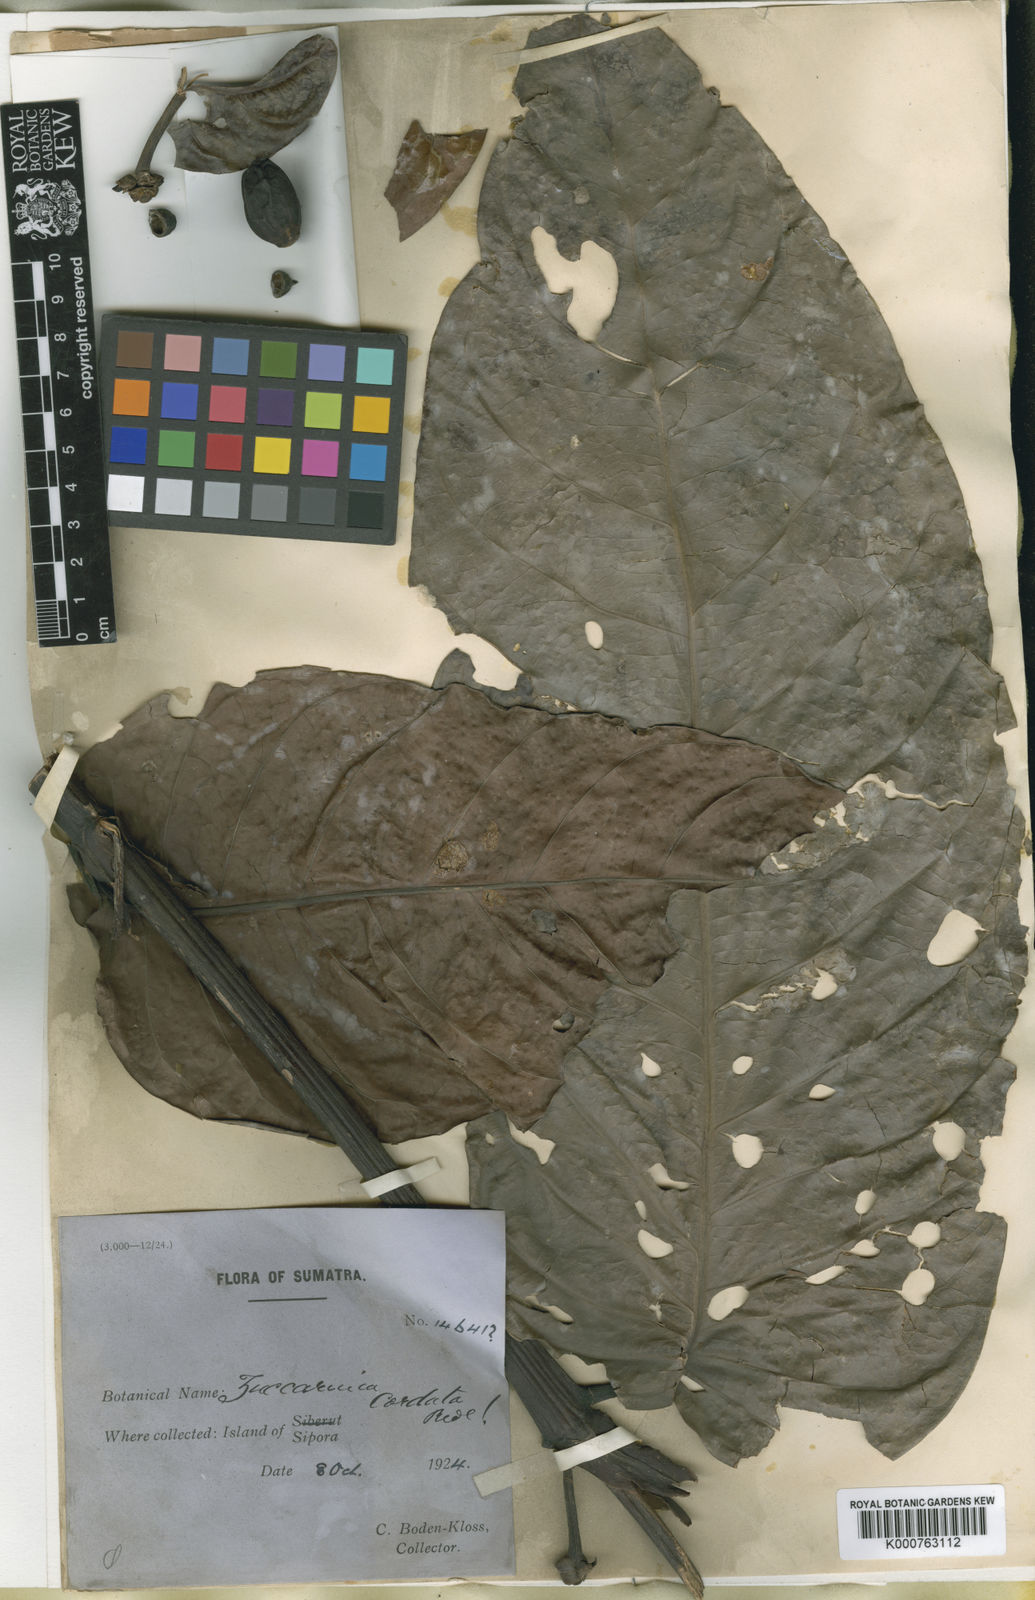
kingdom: Plantae
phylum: Tracheophyta
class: Magnoliopsida
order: Gentianales
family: Rubiaceae
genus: Zuccarinia
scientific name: Zuccarinia macrophylla
